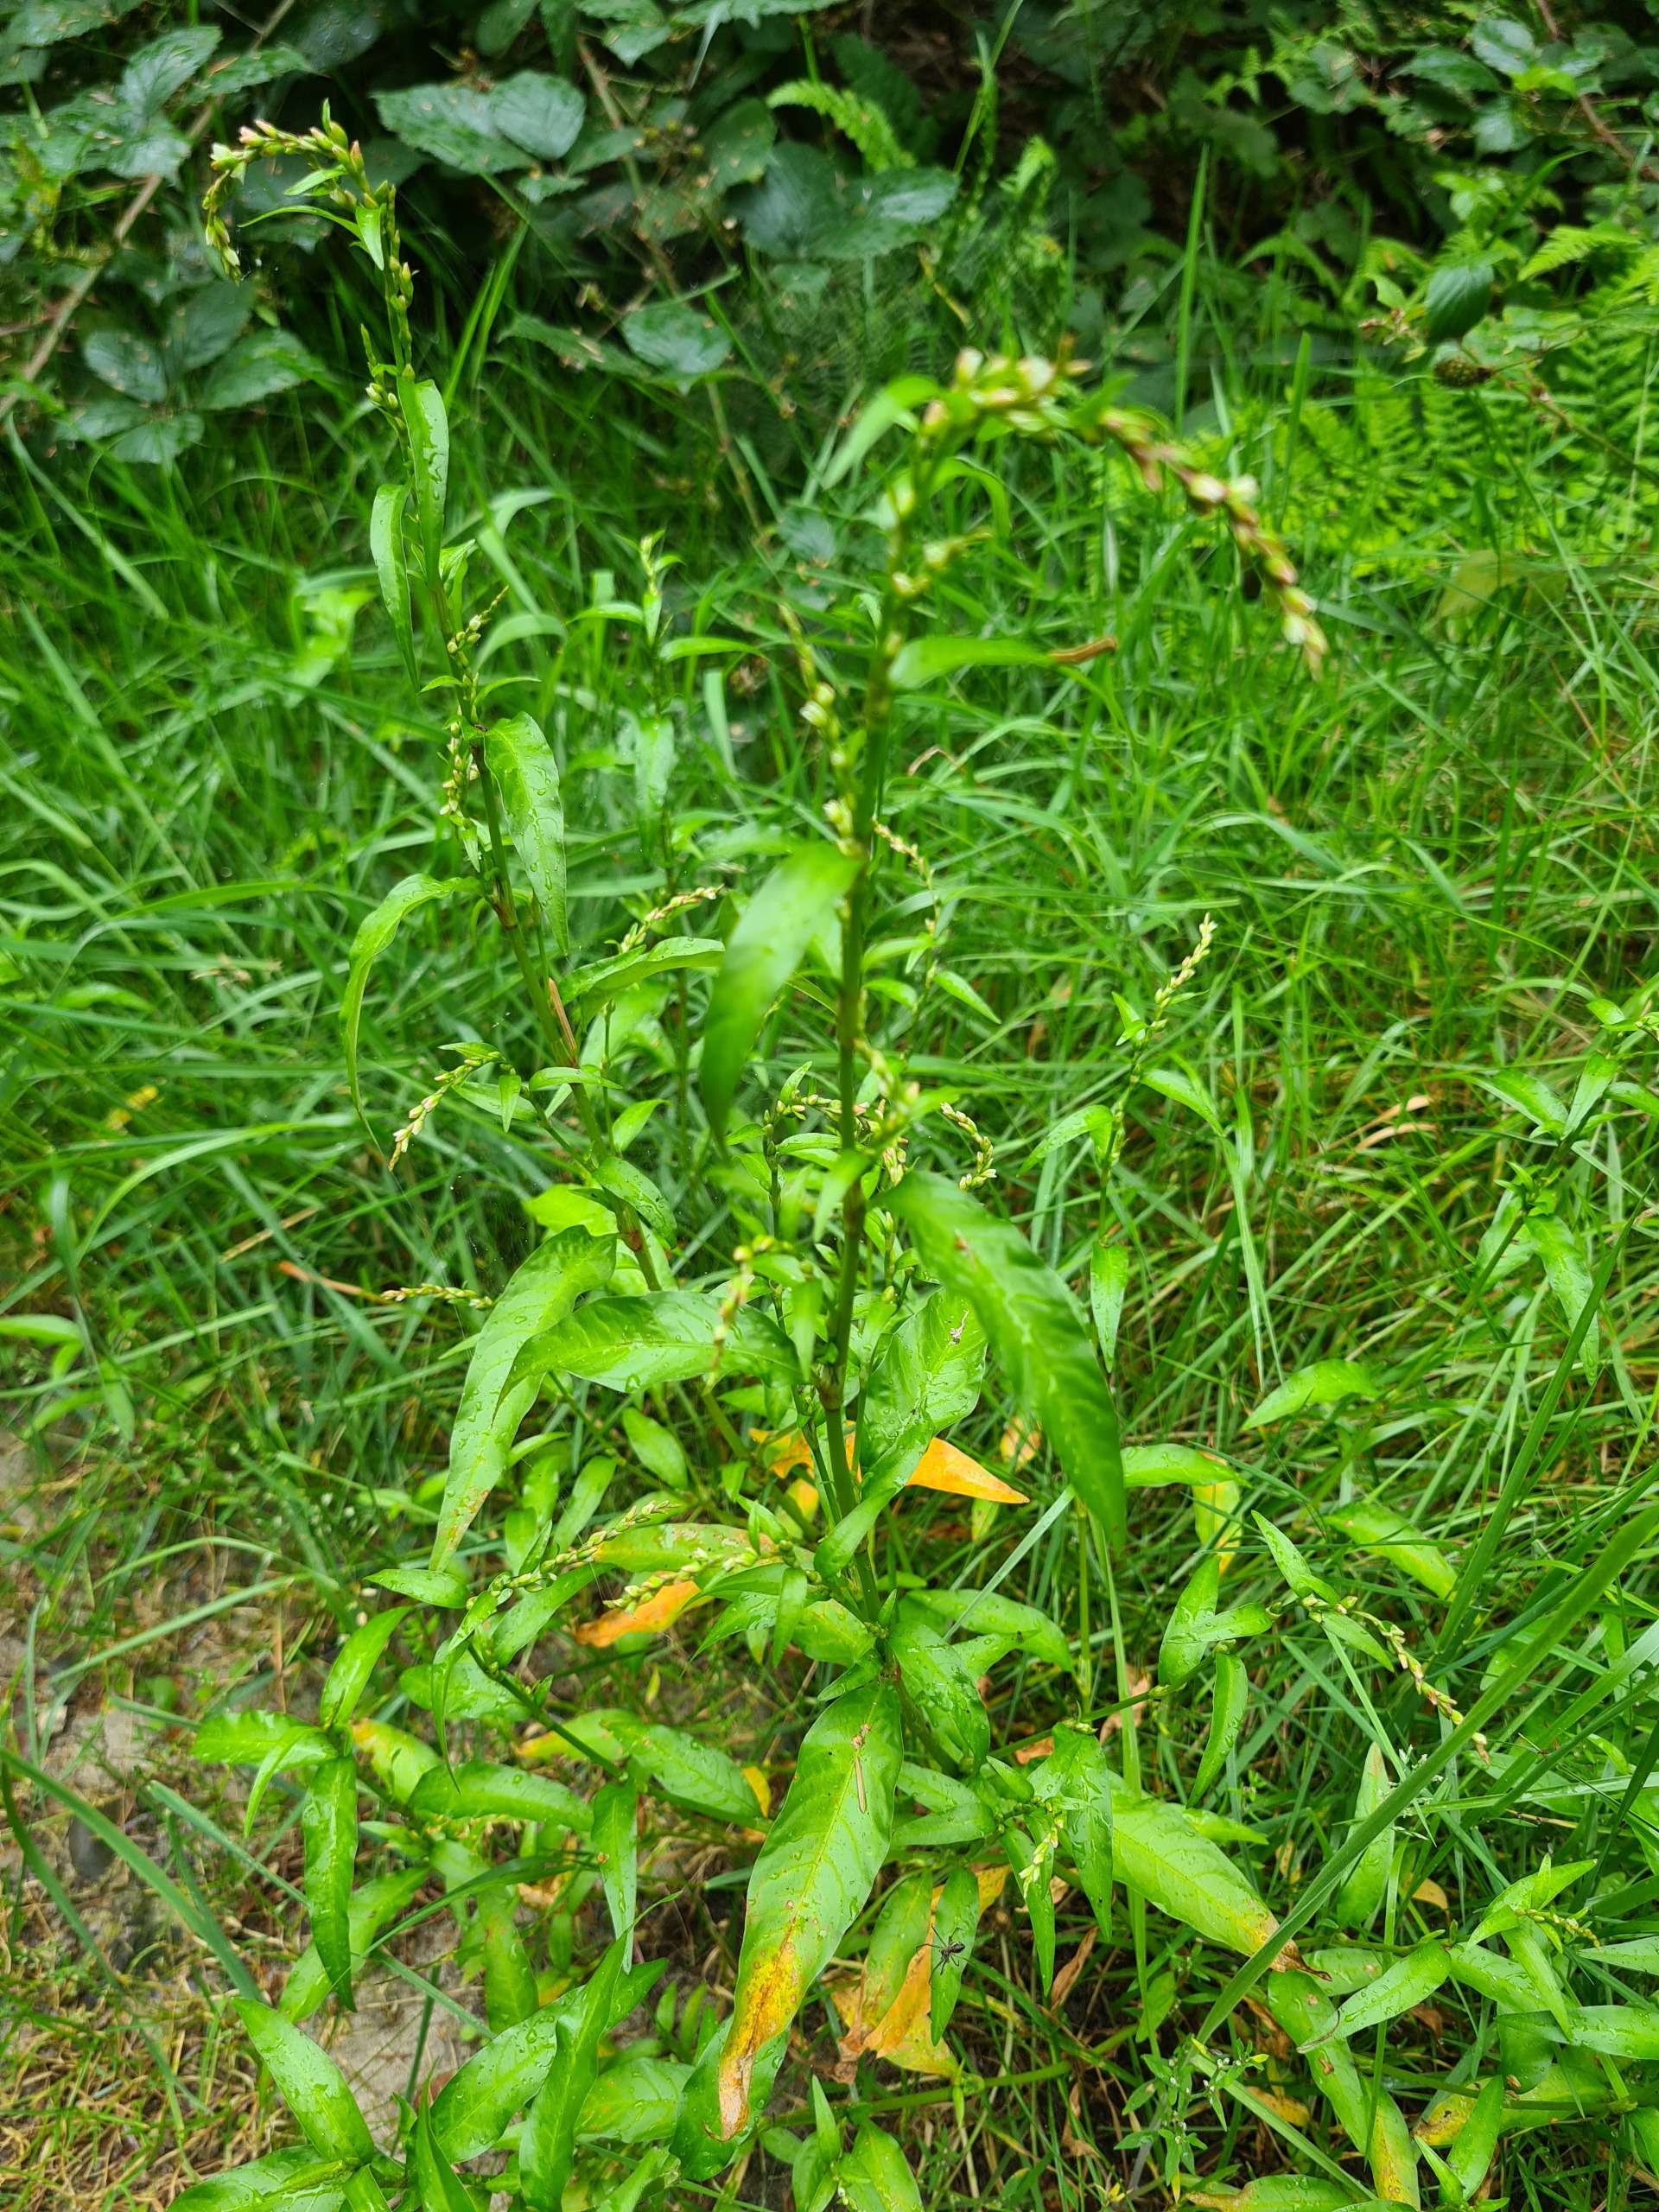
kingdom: Plantae
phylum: Tracheophyta
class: Magnoliopsida
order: Caryophyllales
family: Polygonaceae
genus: Persicaria
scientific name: Persicaria hydropiper
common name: Bidende pileurt
